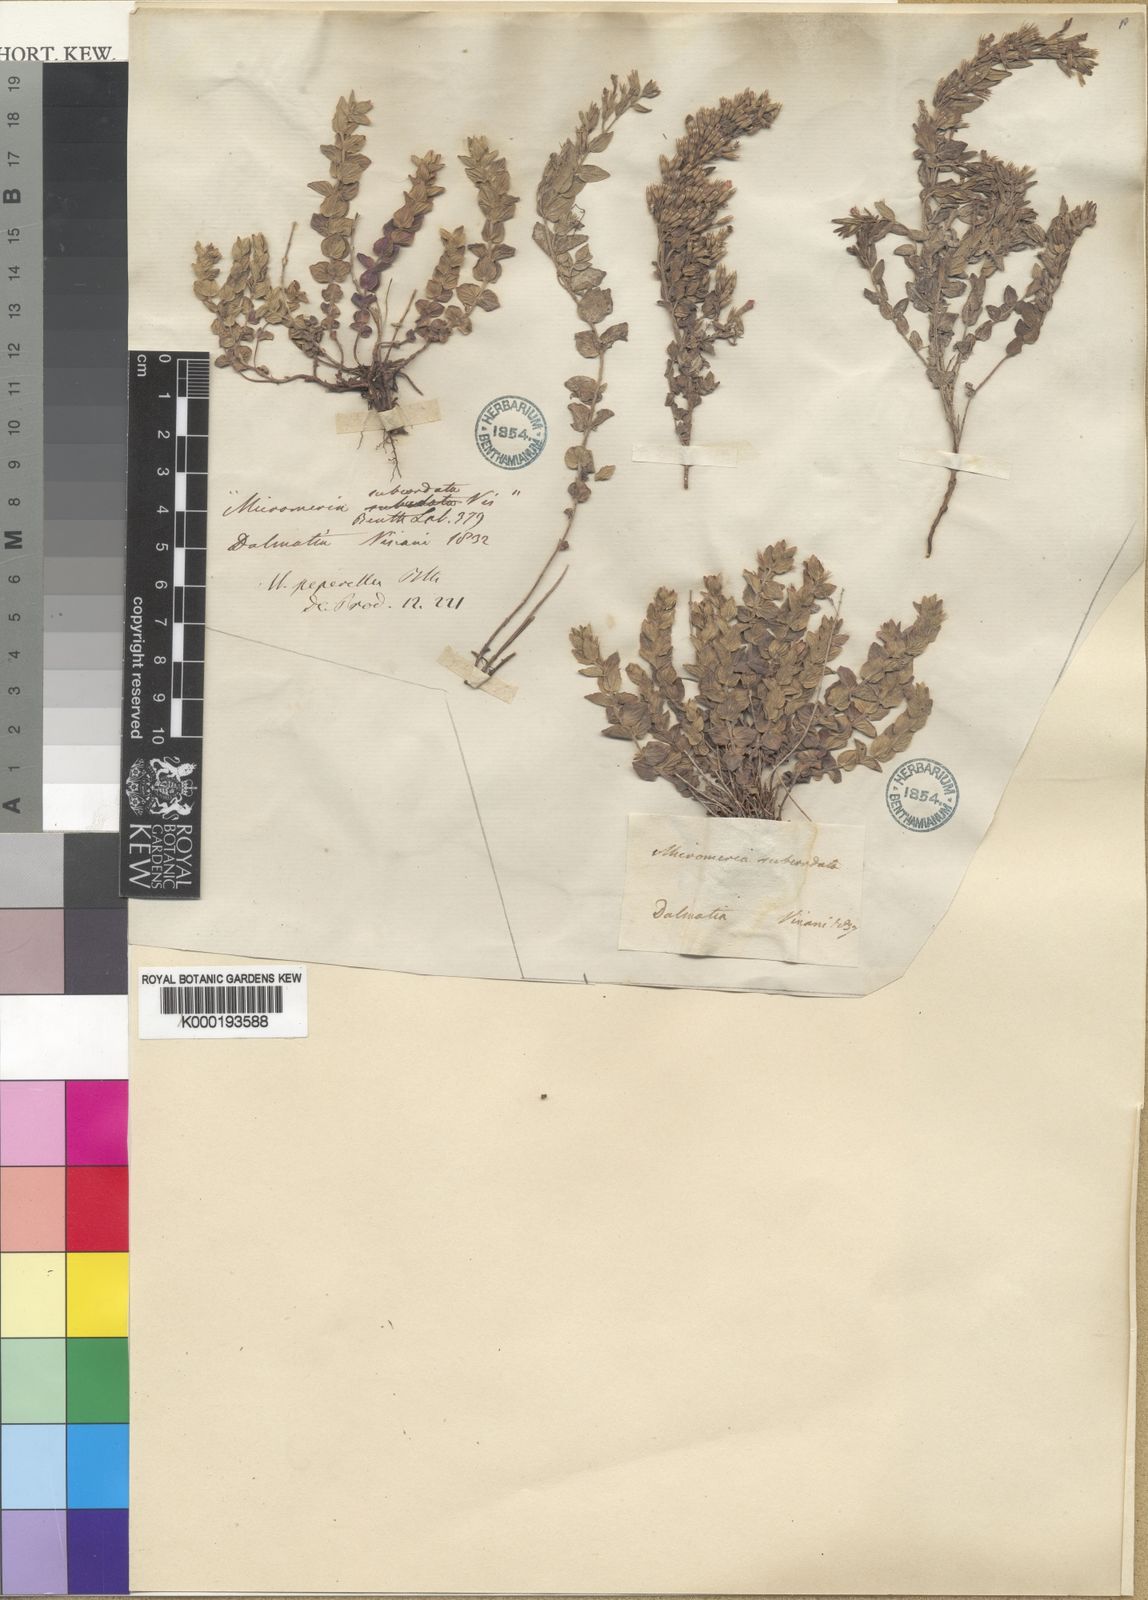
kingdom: Plantae
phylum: Tracheophyta
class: Magnoliopsida
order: Lamiales
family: Lamiaceae
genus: Micromeria
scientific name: Micromeria croatica
